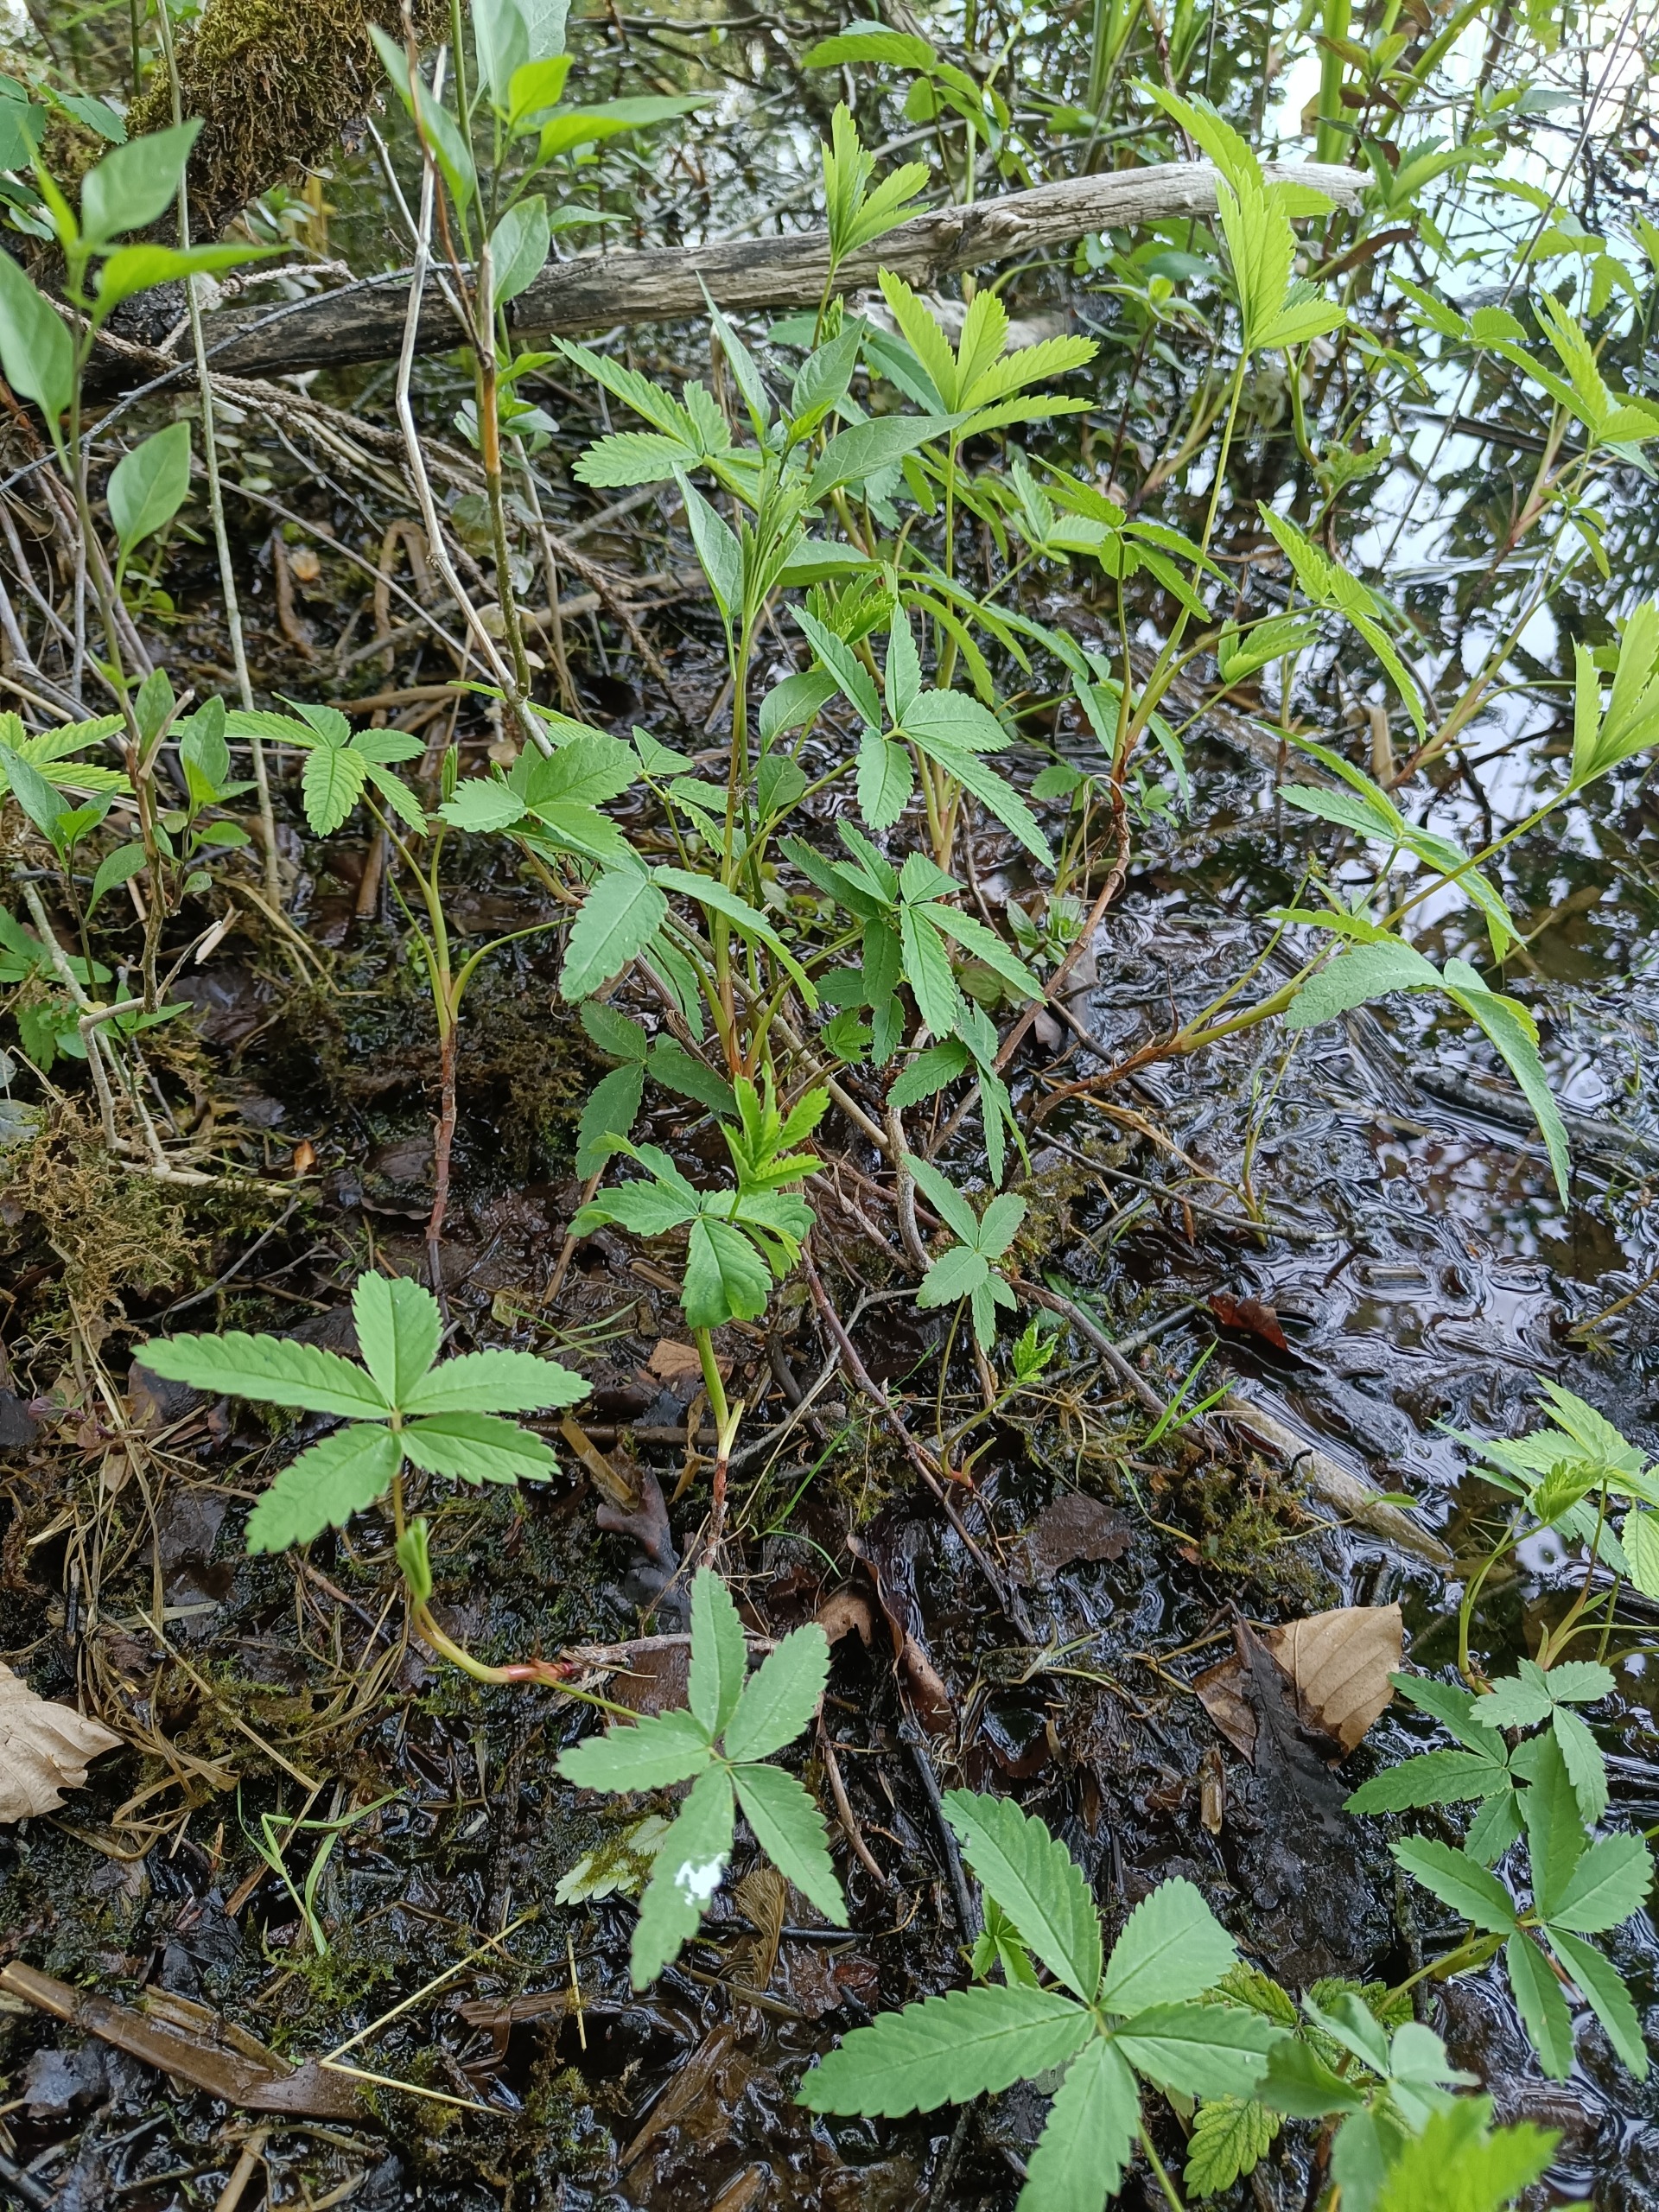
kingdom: Plantae
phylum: Tracheophyta
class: Magnoliopsida
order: Rosales
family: Rosaceae
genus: Comarum
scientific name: Comarum palustre
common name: Kragefod
